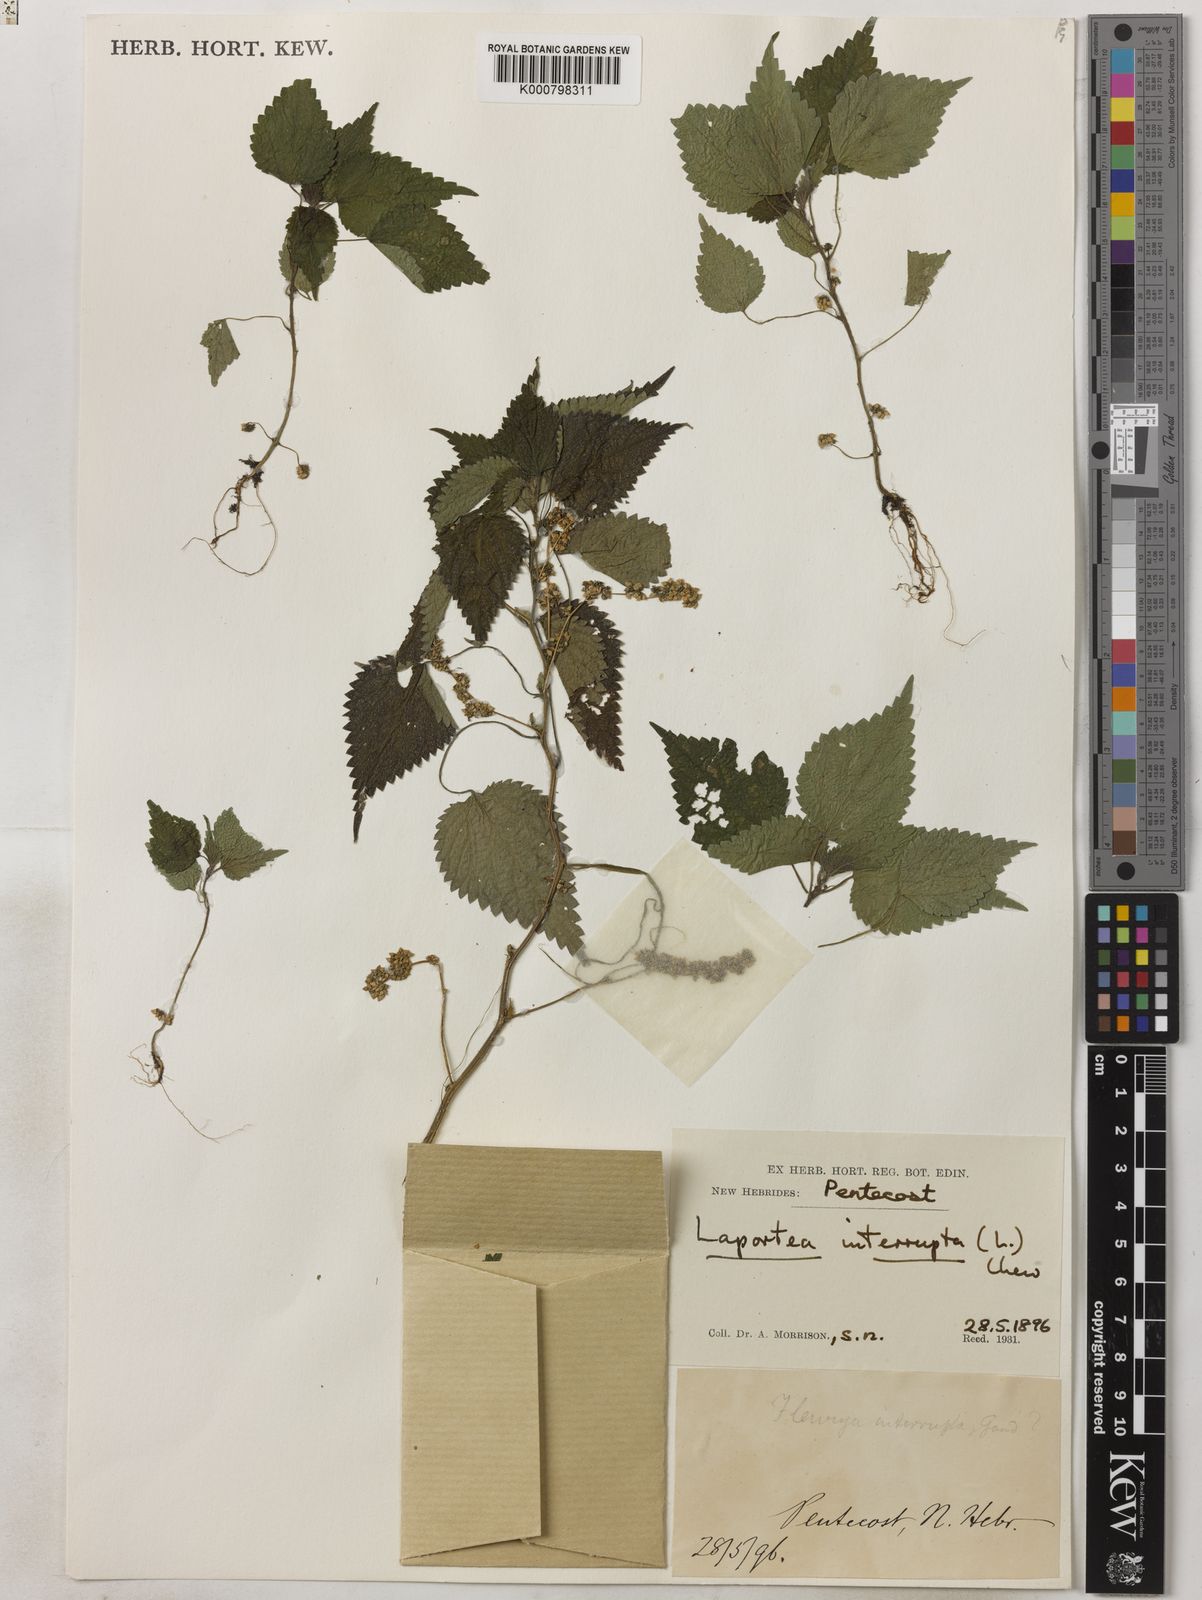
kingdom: Plantae
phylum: Tracheophyta
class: Magnoliopsida
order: Rosales
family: Urticaceae
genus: Laportea
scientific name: Laportea interrupta
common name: Hawaiian wood-nettle
